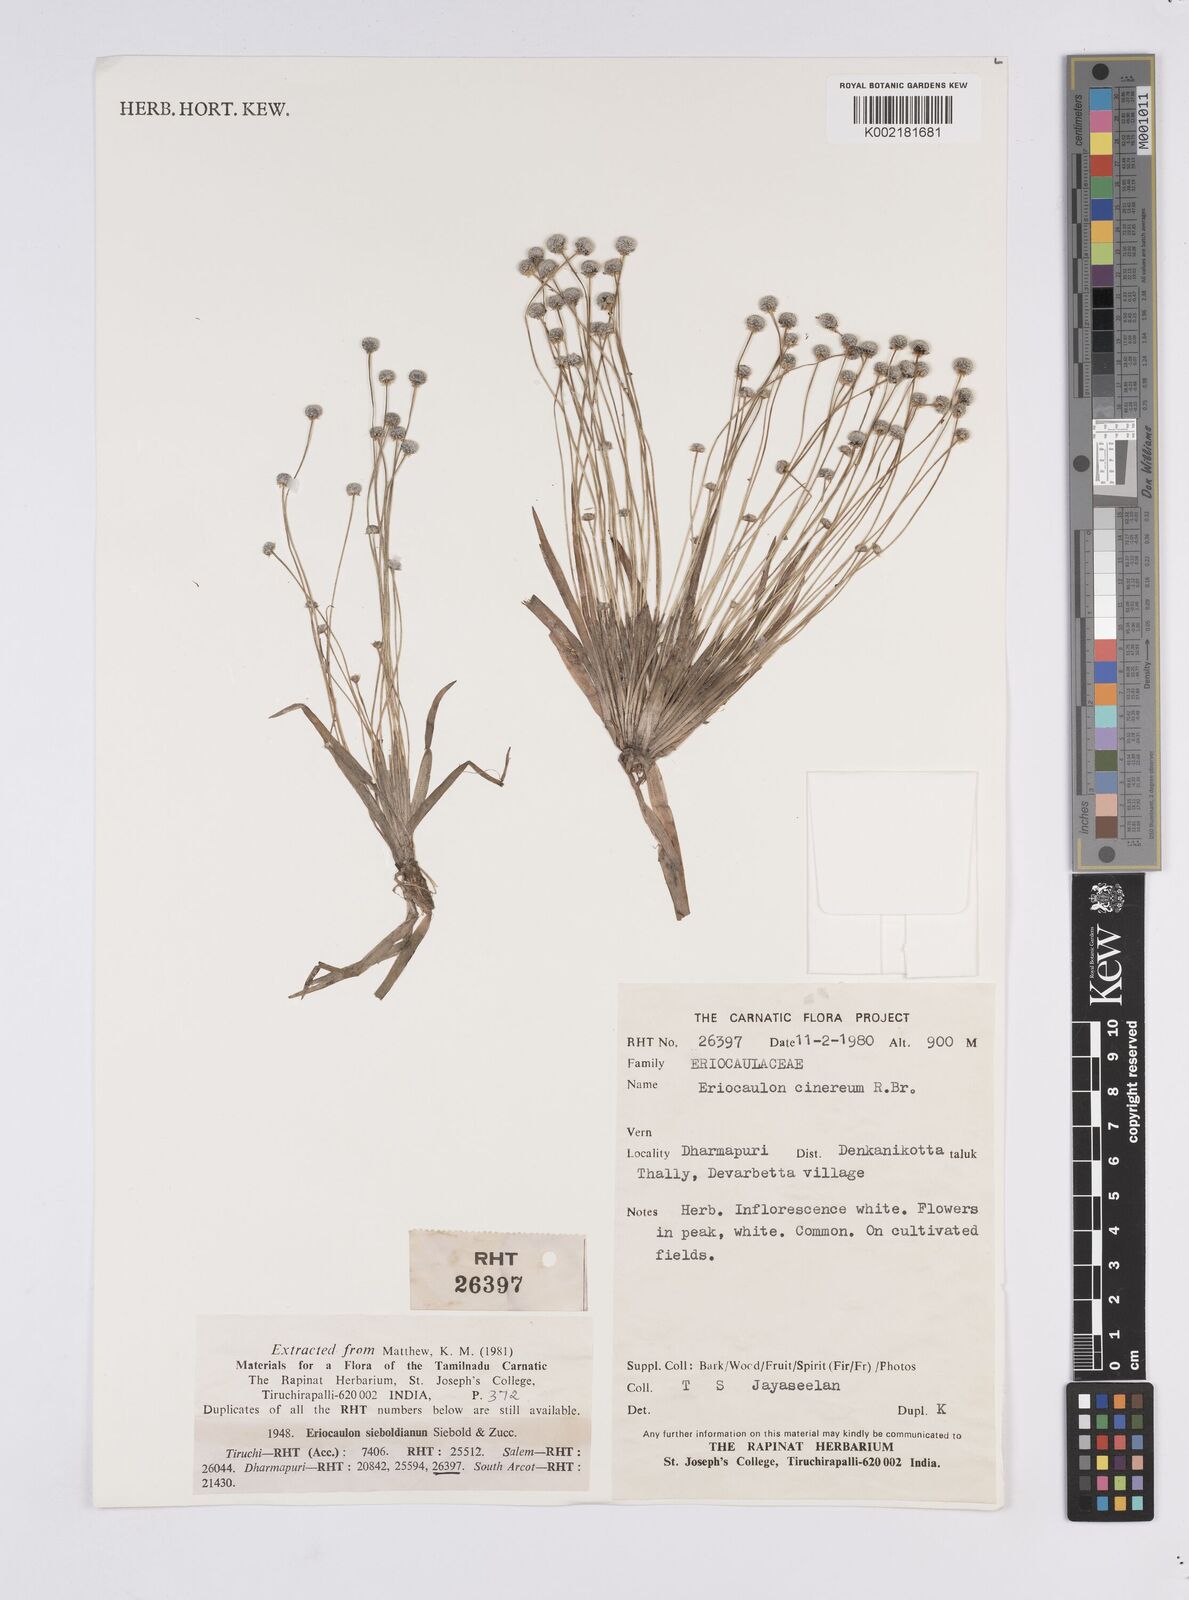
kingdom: Plantae
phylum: Tracheophyta
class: Liliopsida
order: Poales
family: Eriocaulaceae
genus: Eriocaulon
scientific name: Eriocaulon quinquangulare
